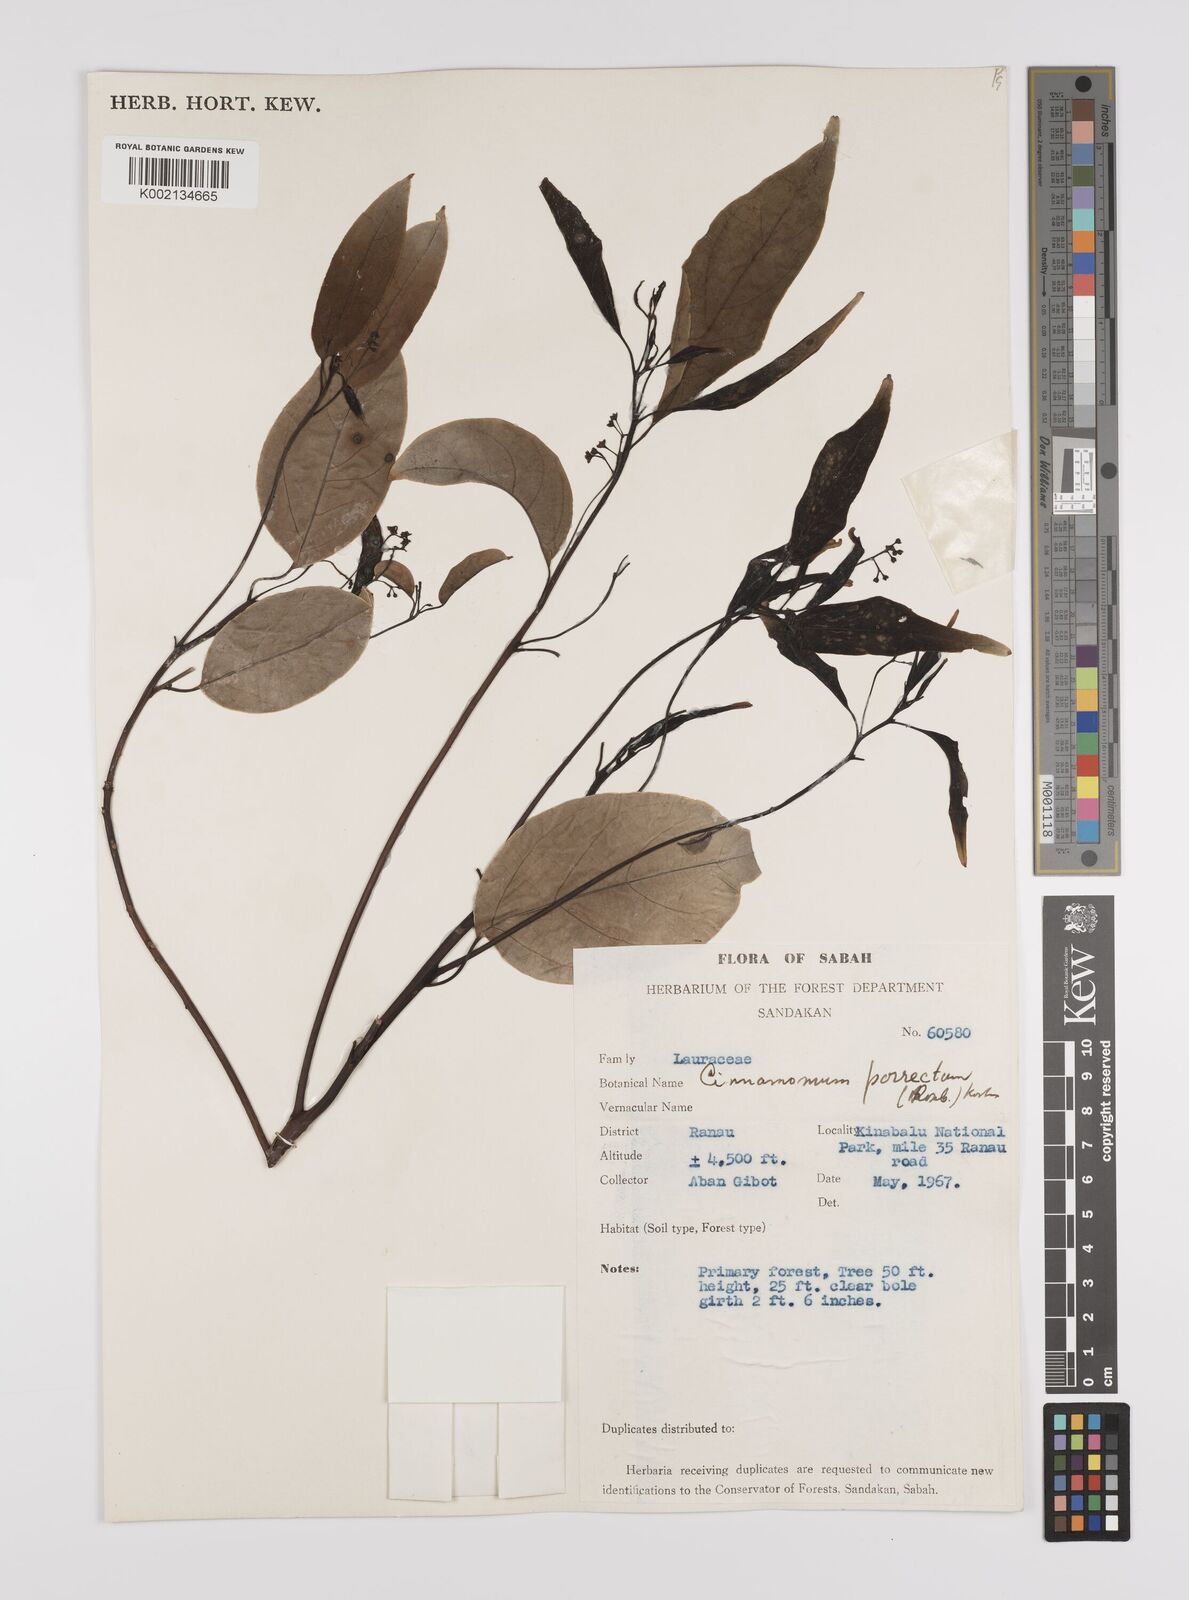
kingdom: Plantae
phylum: Tracheophyta
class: Magnoliopsida
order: Laurales
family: Lauraceae
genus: Cinnamomum
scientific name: Cinnamomum parthenoxylon
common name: Martaban camphor wood
